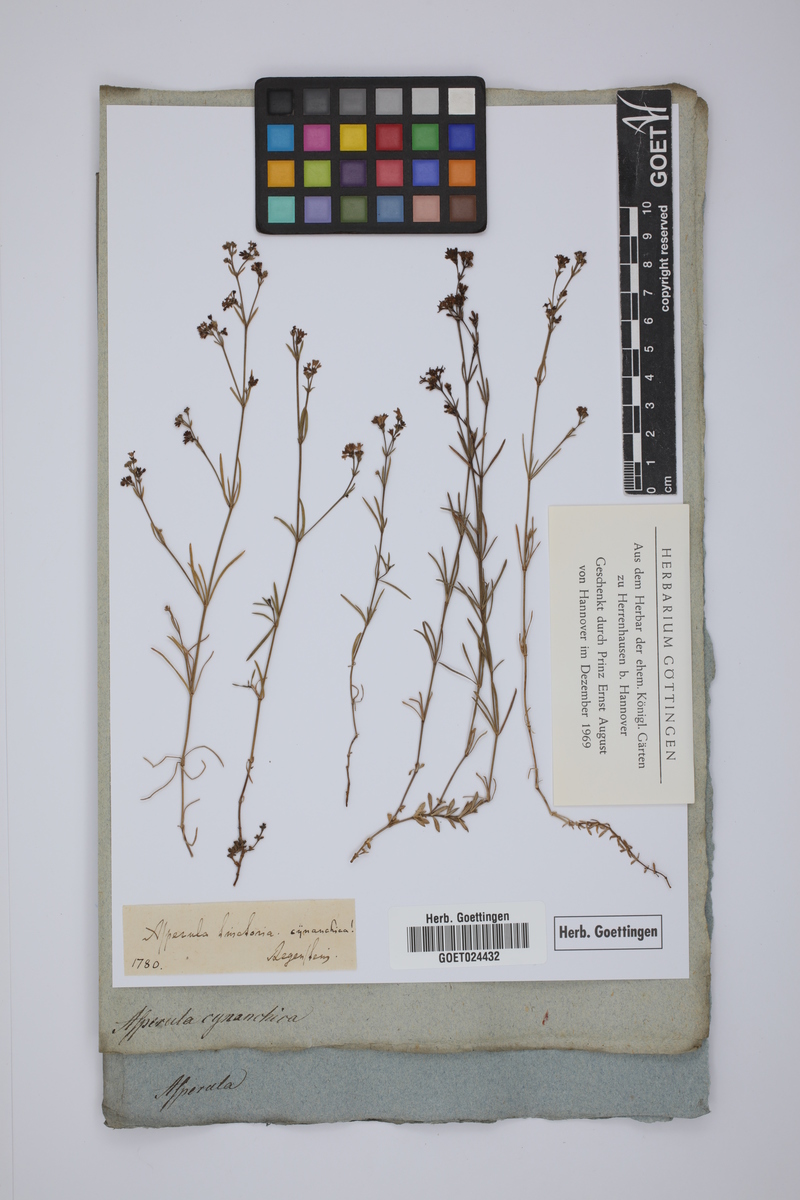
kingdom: Plantae
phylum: Tracheophyta
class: Magnoliopsida
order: Gentianales
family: Rubiaceae
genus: Cynanchica
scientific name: Cynanchica pyrenaica
